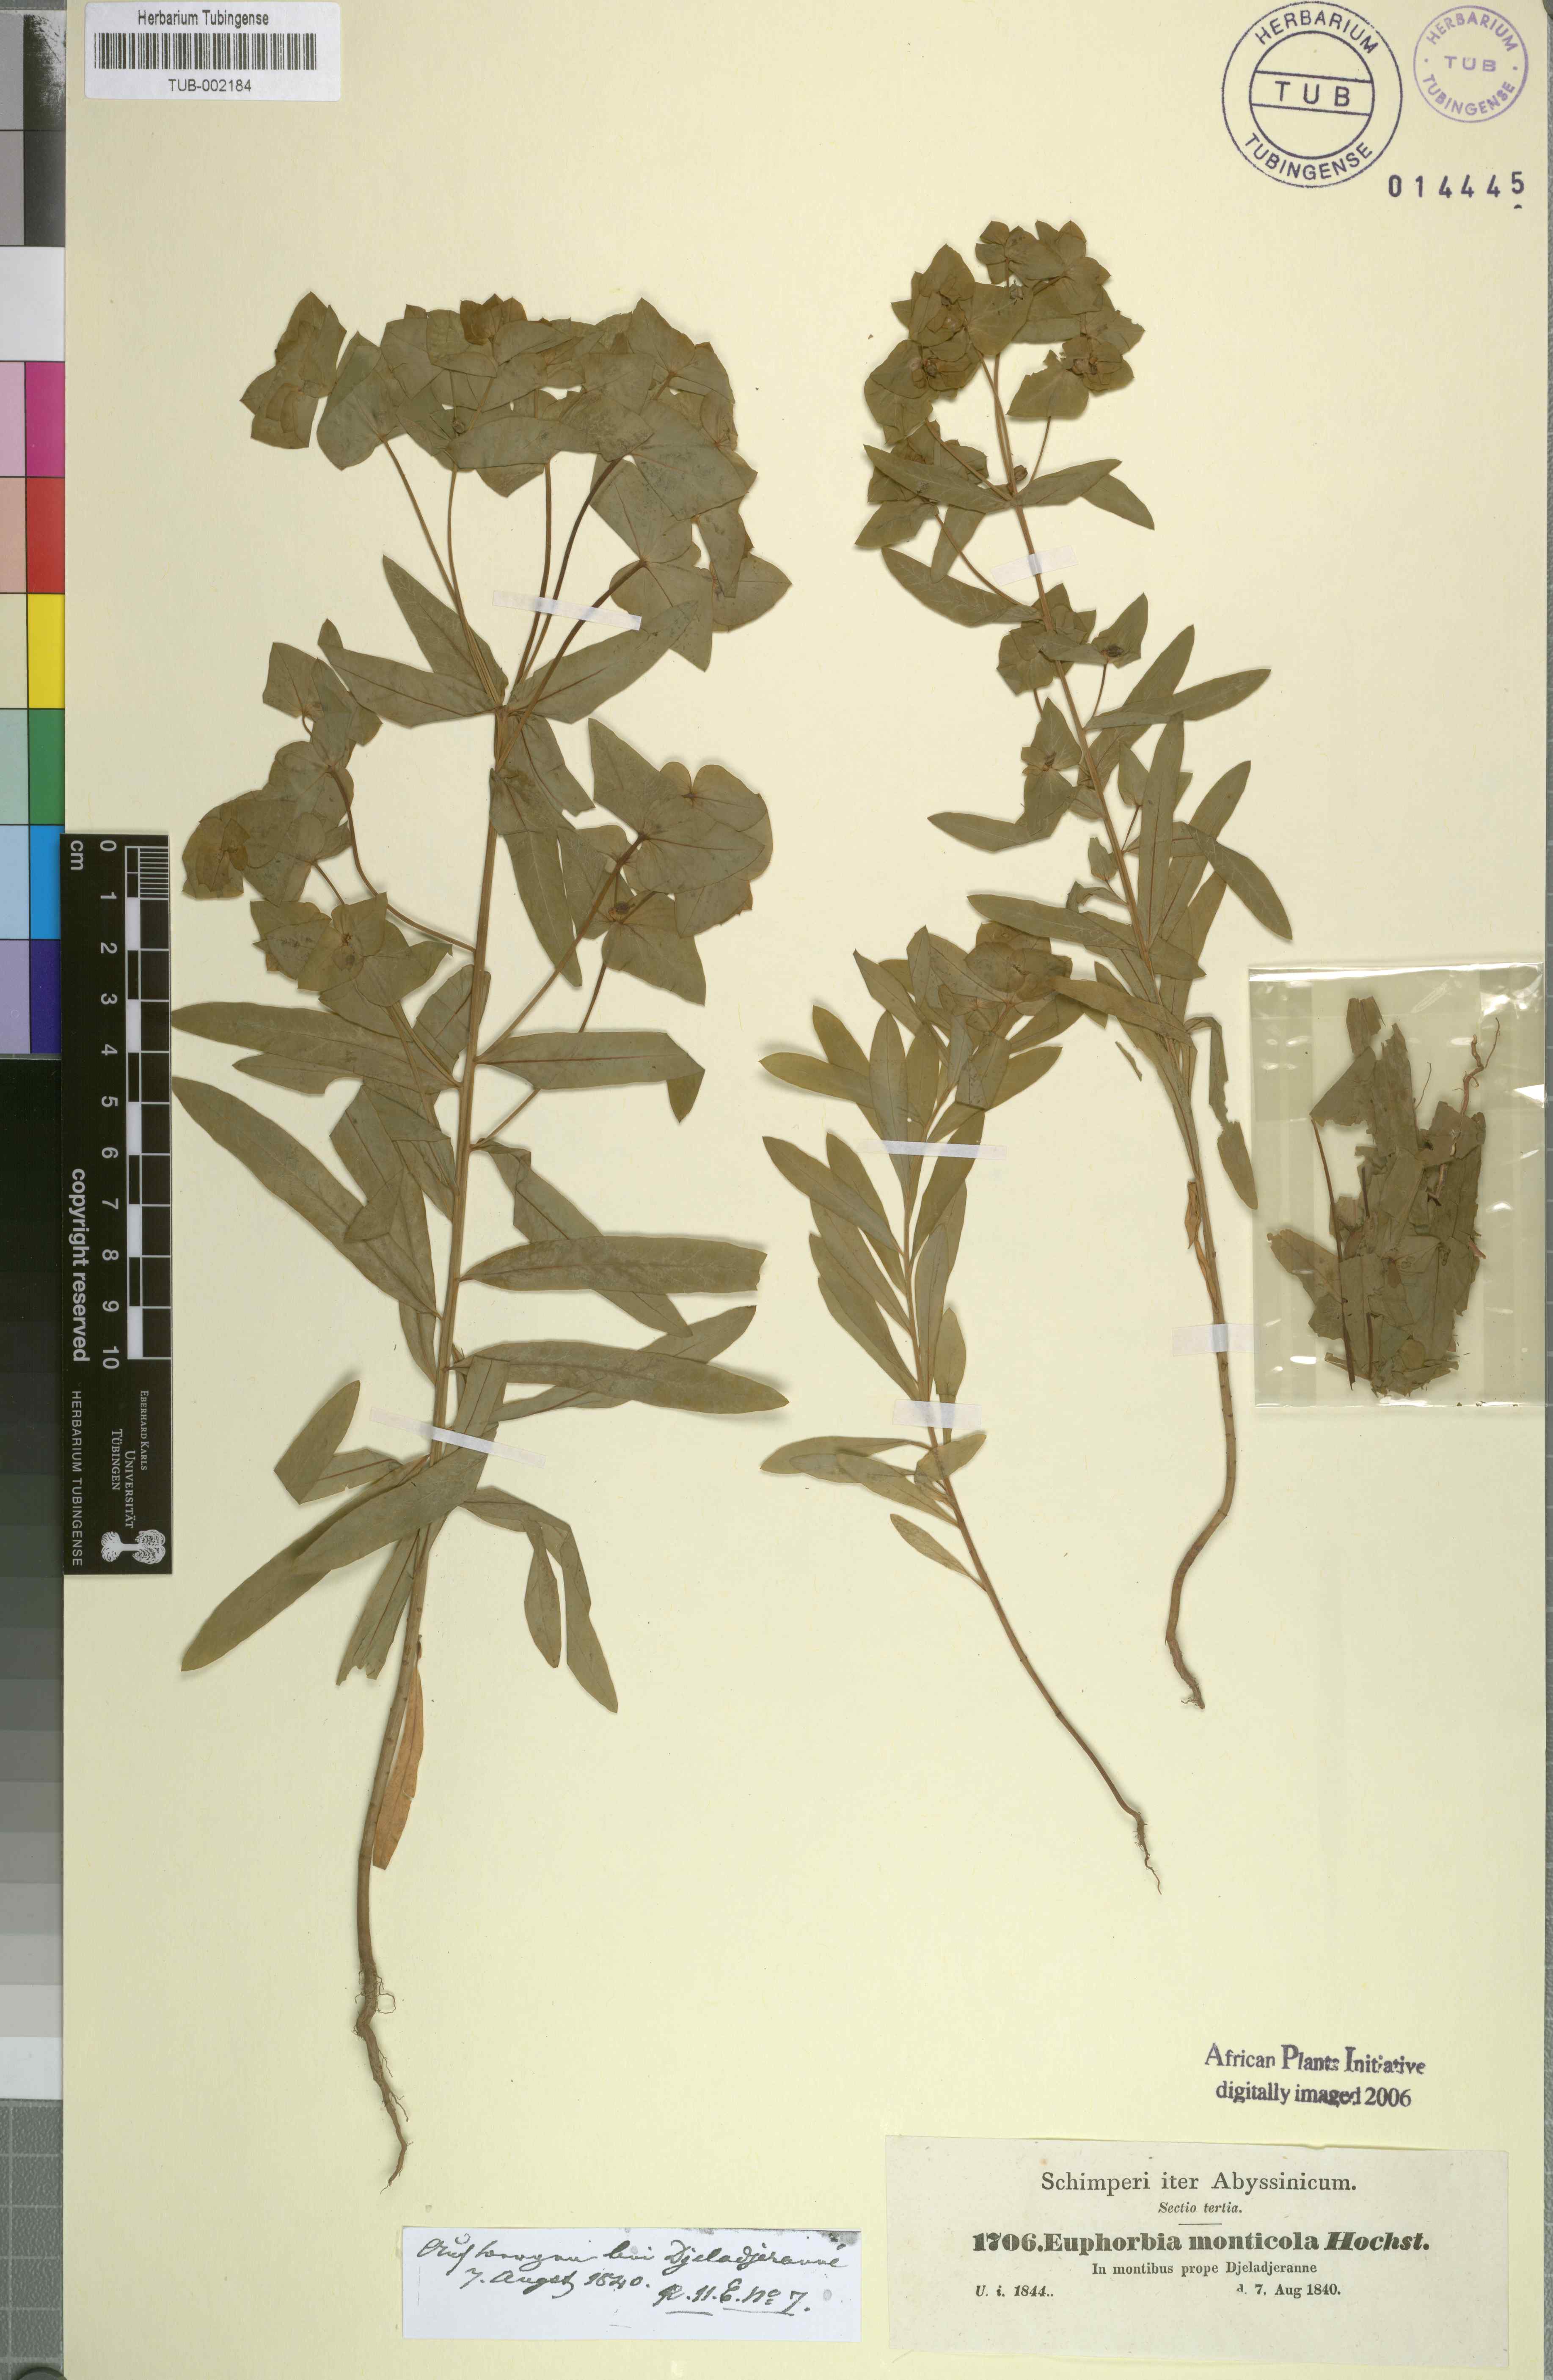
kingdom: Plantae
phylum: Tracheophyta
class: Magnoliopsida
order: Malpighiales
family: Euphorbiaceae
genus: Euphorbia
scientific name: Euphorbia schimperiana
